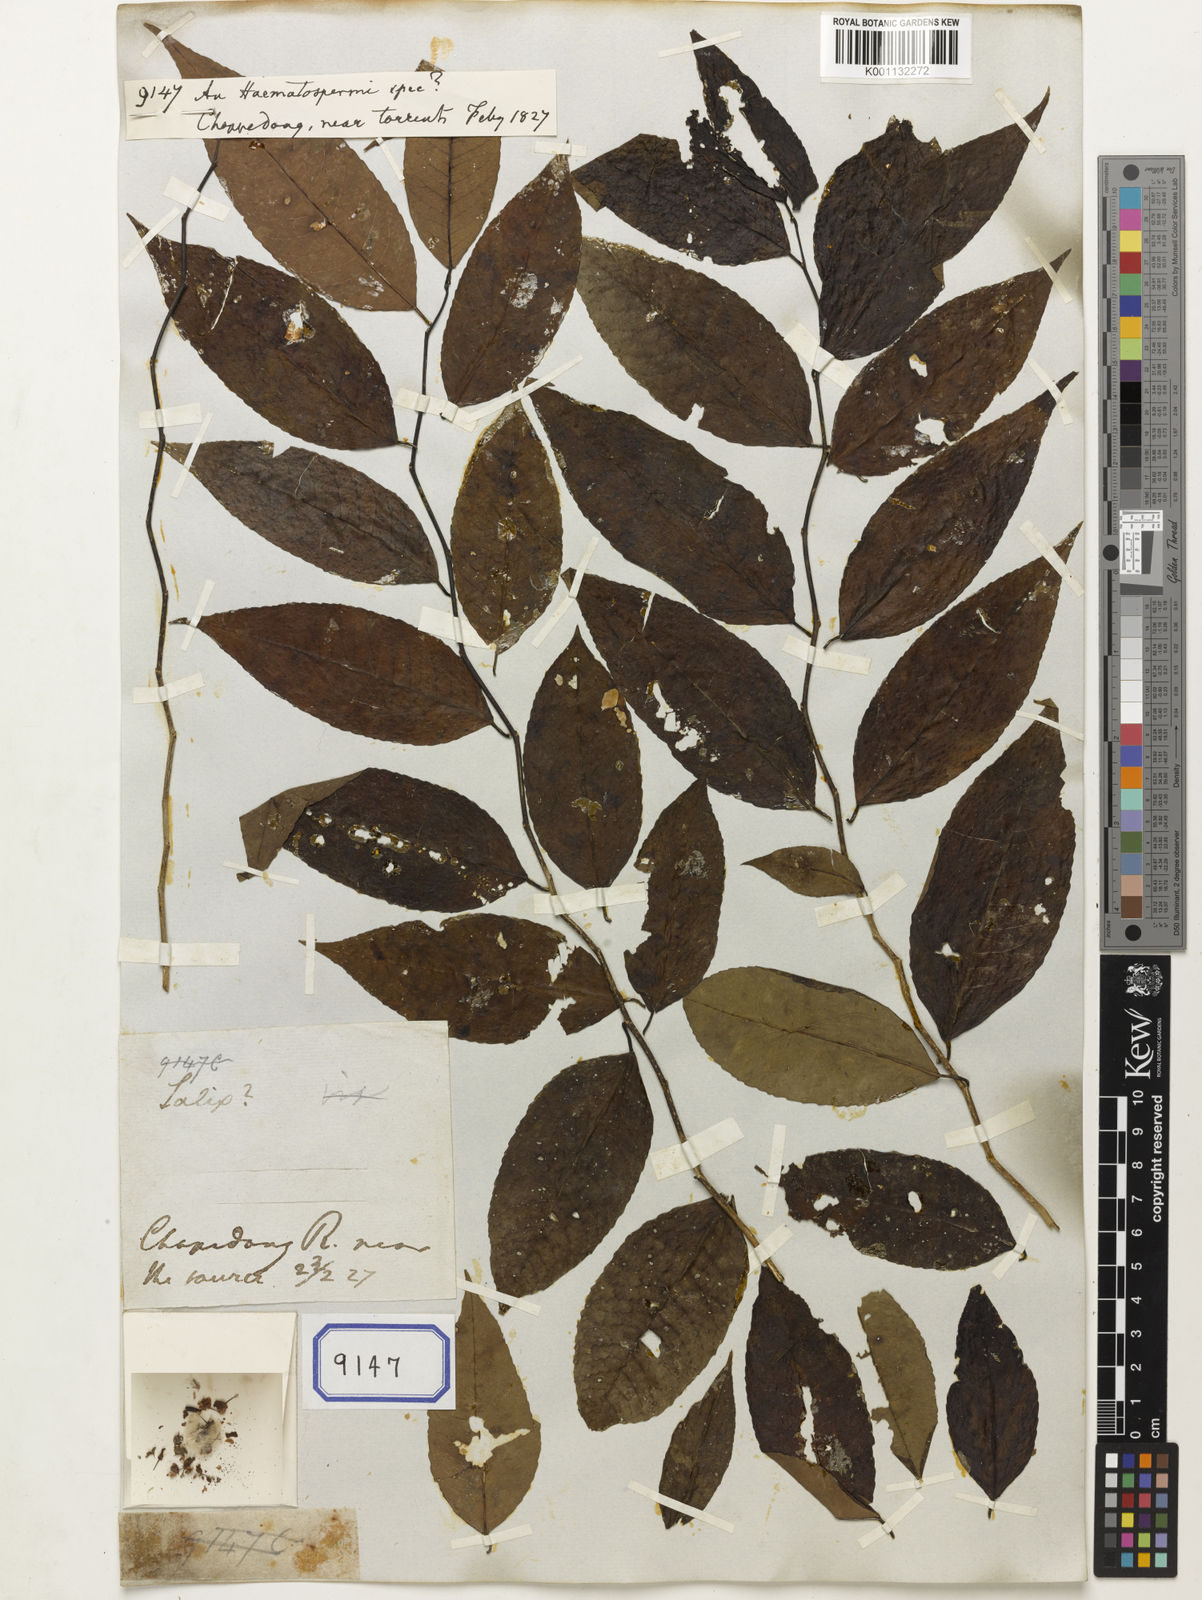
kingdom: Plantae
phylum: Tracheophyta
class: Magnoliopsida
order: Malpighiales
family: Euphorbiaceae
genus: Homonoia
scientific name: Homonoia
